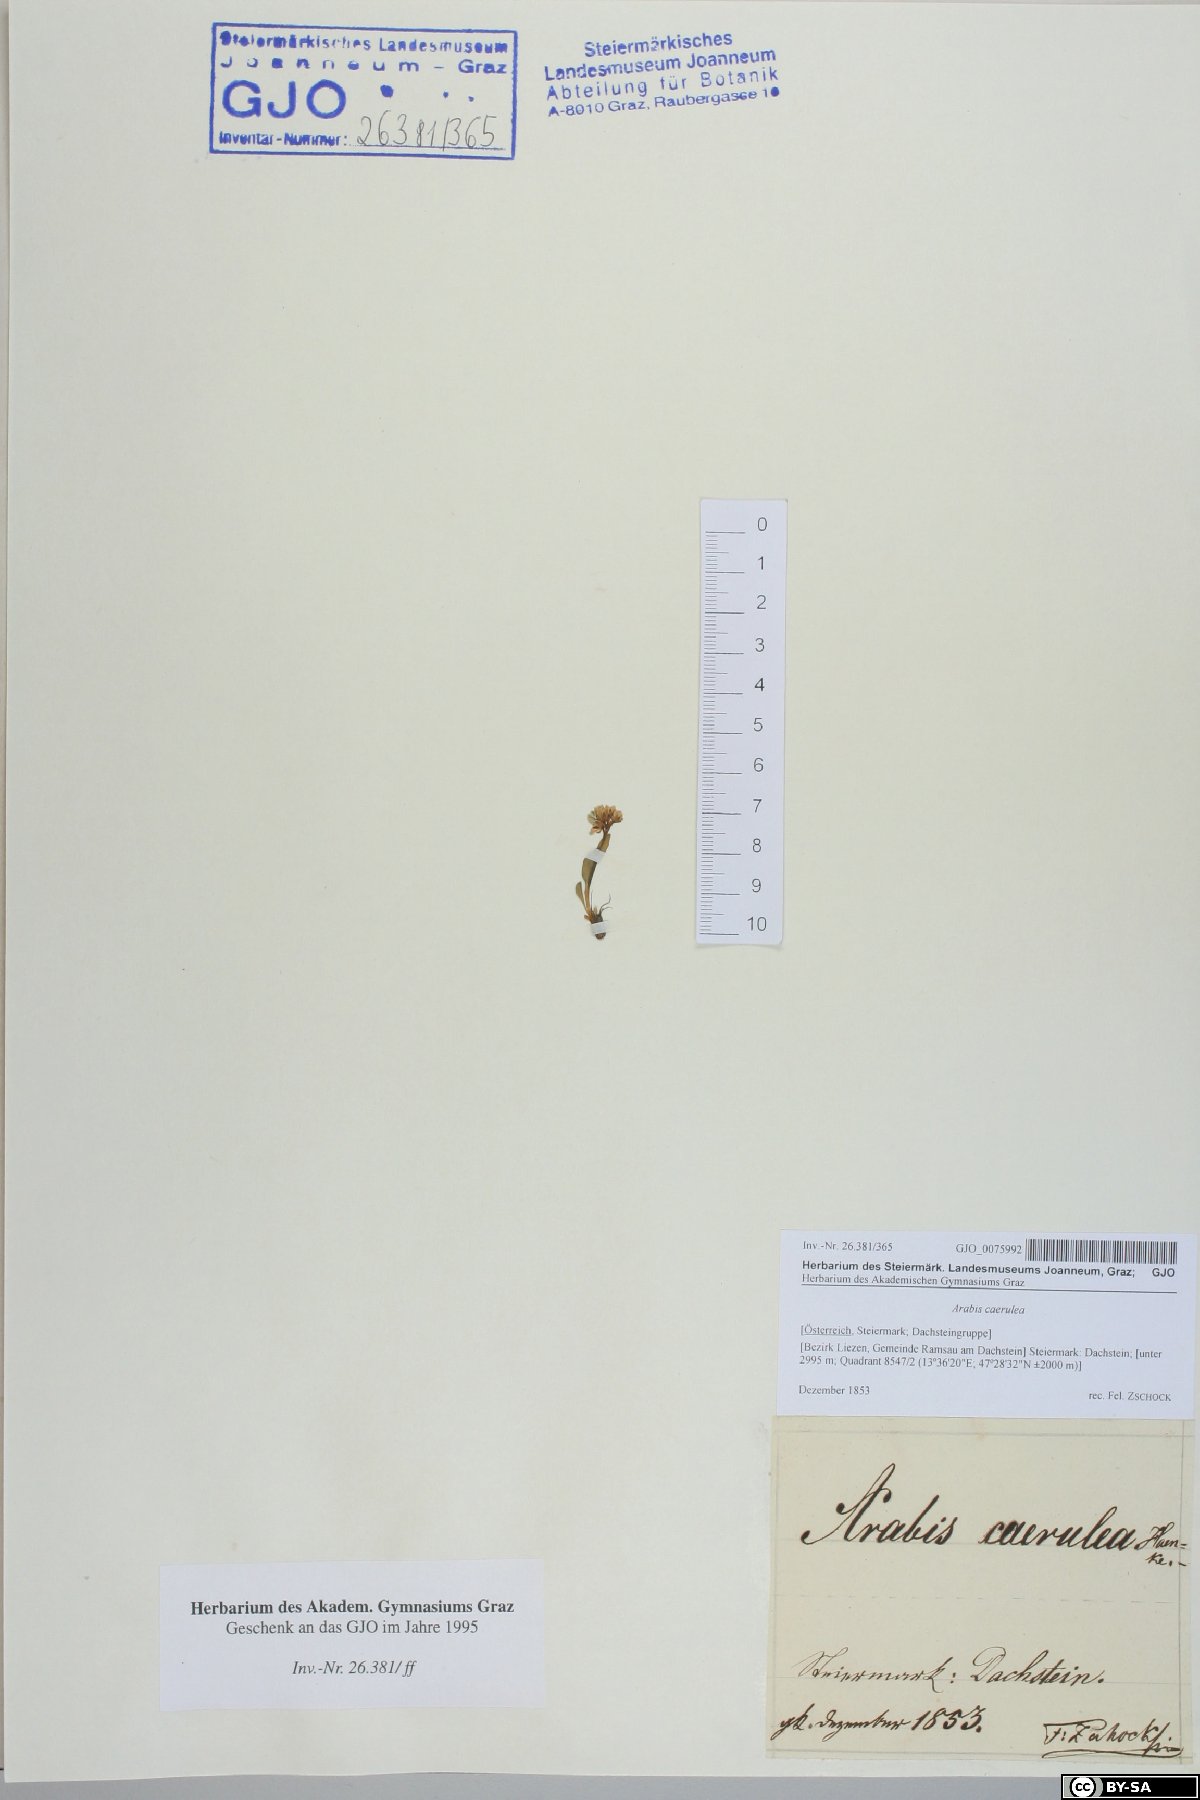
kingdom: Plantae
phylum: Tracheophyta
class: Magnoliopsida
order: Brassicales
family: Brassicaceae
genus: Arabis
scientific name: Arabis caerulea
